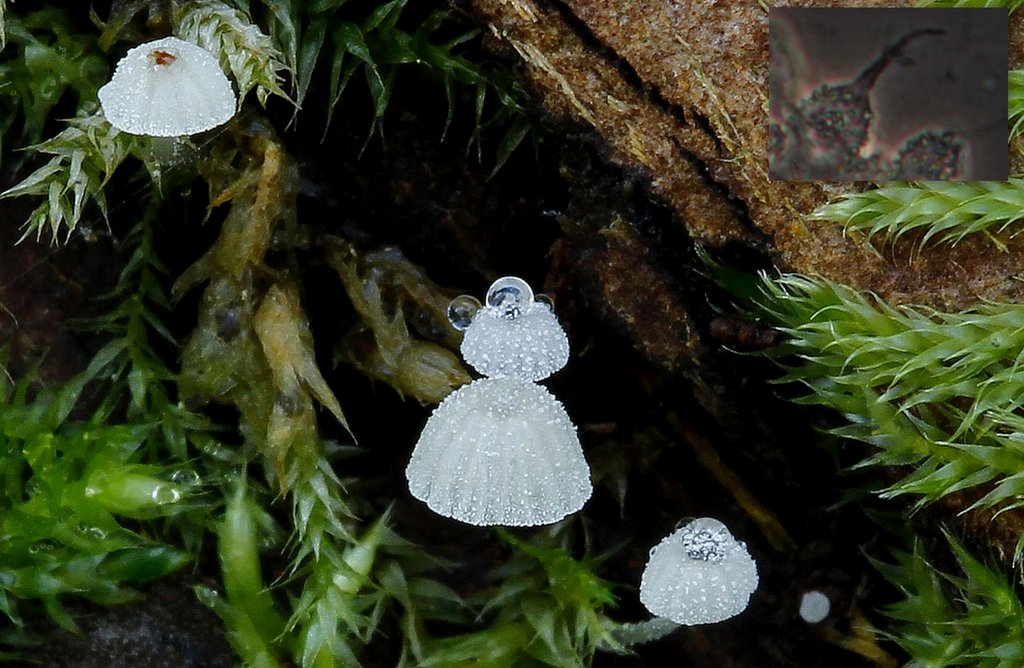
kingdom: Fungi
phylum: Basidiomycota
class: Agaricomycetes
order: Agaricales
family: Mycenaceae
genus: Mycena
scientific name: Mycena tenerrima
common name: pudret huesvamp
